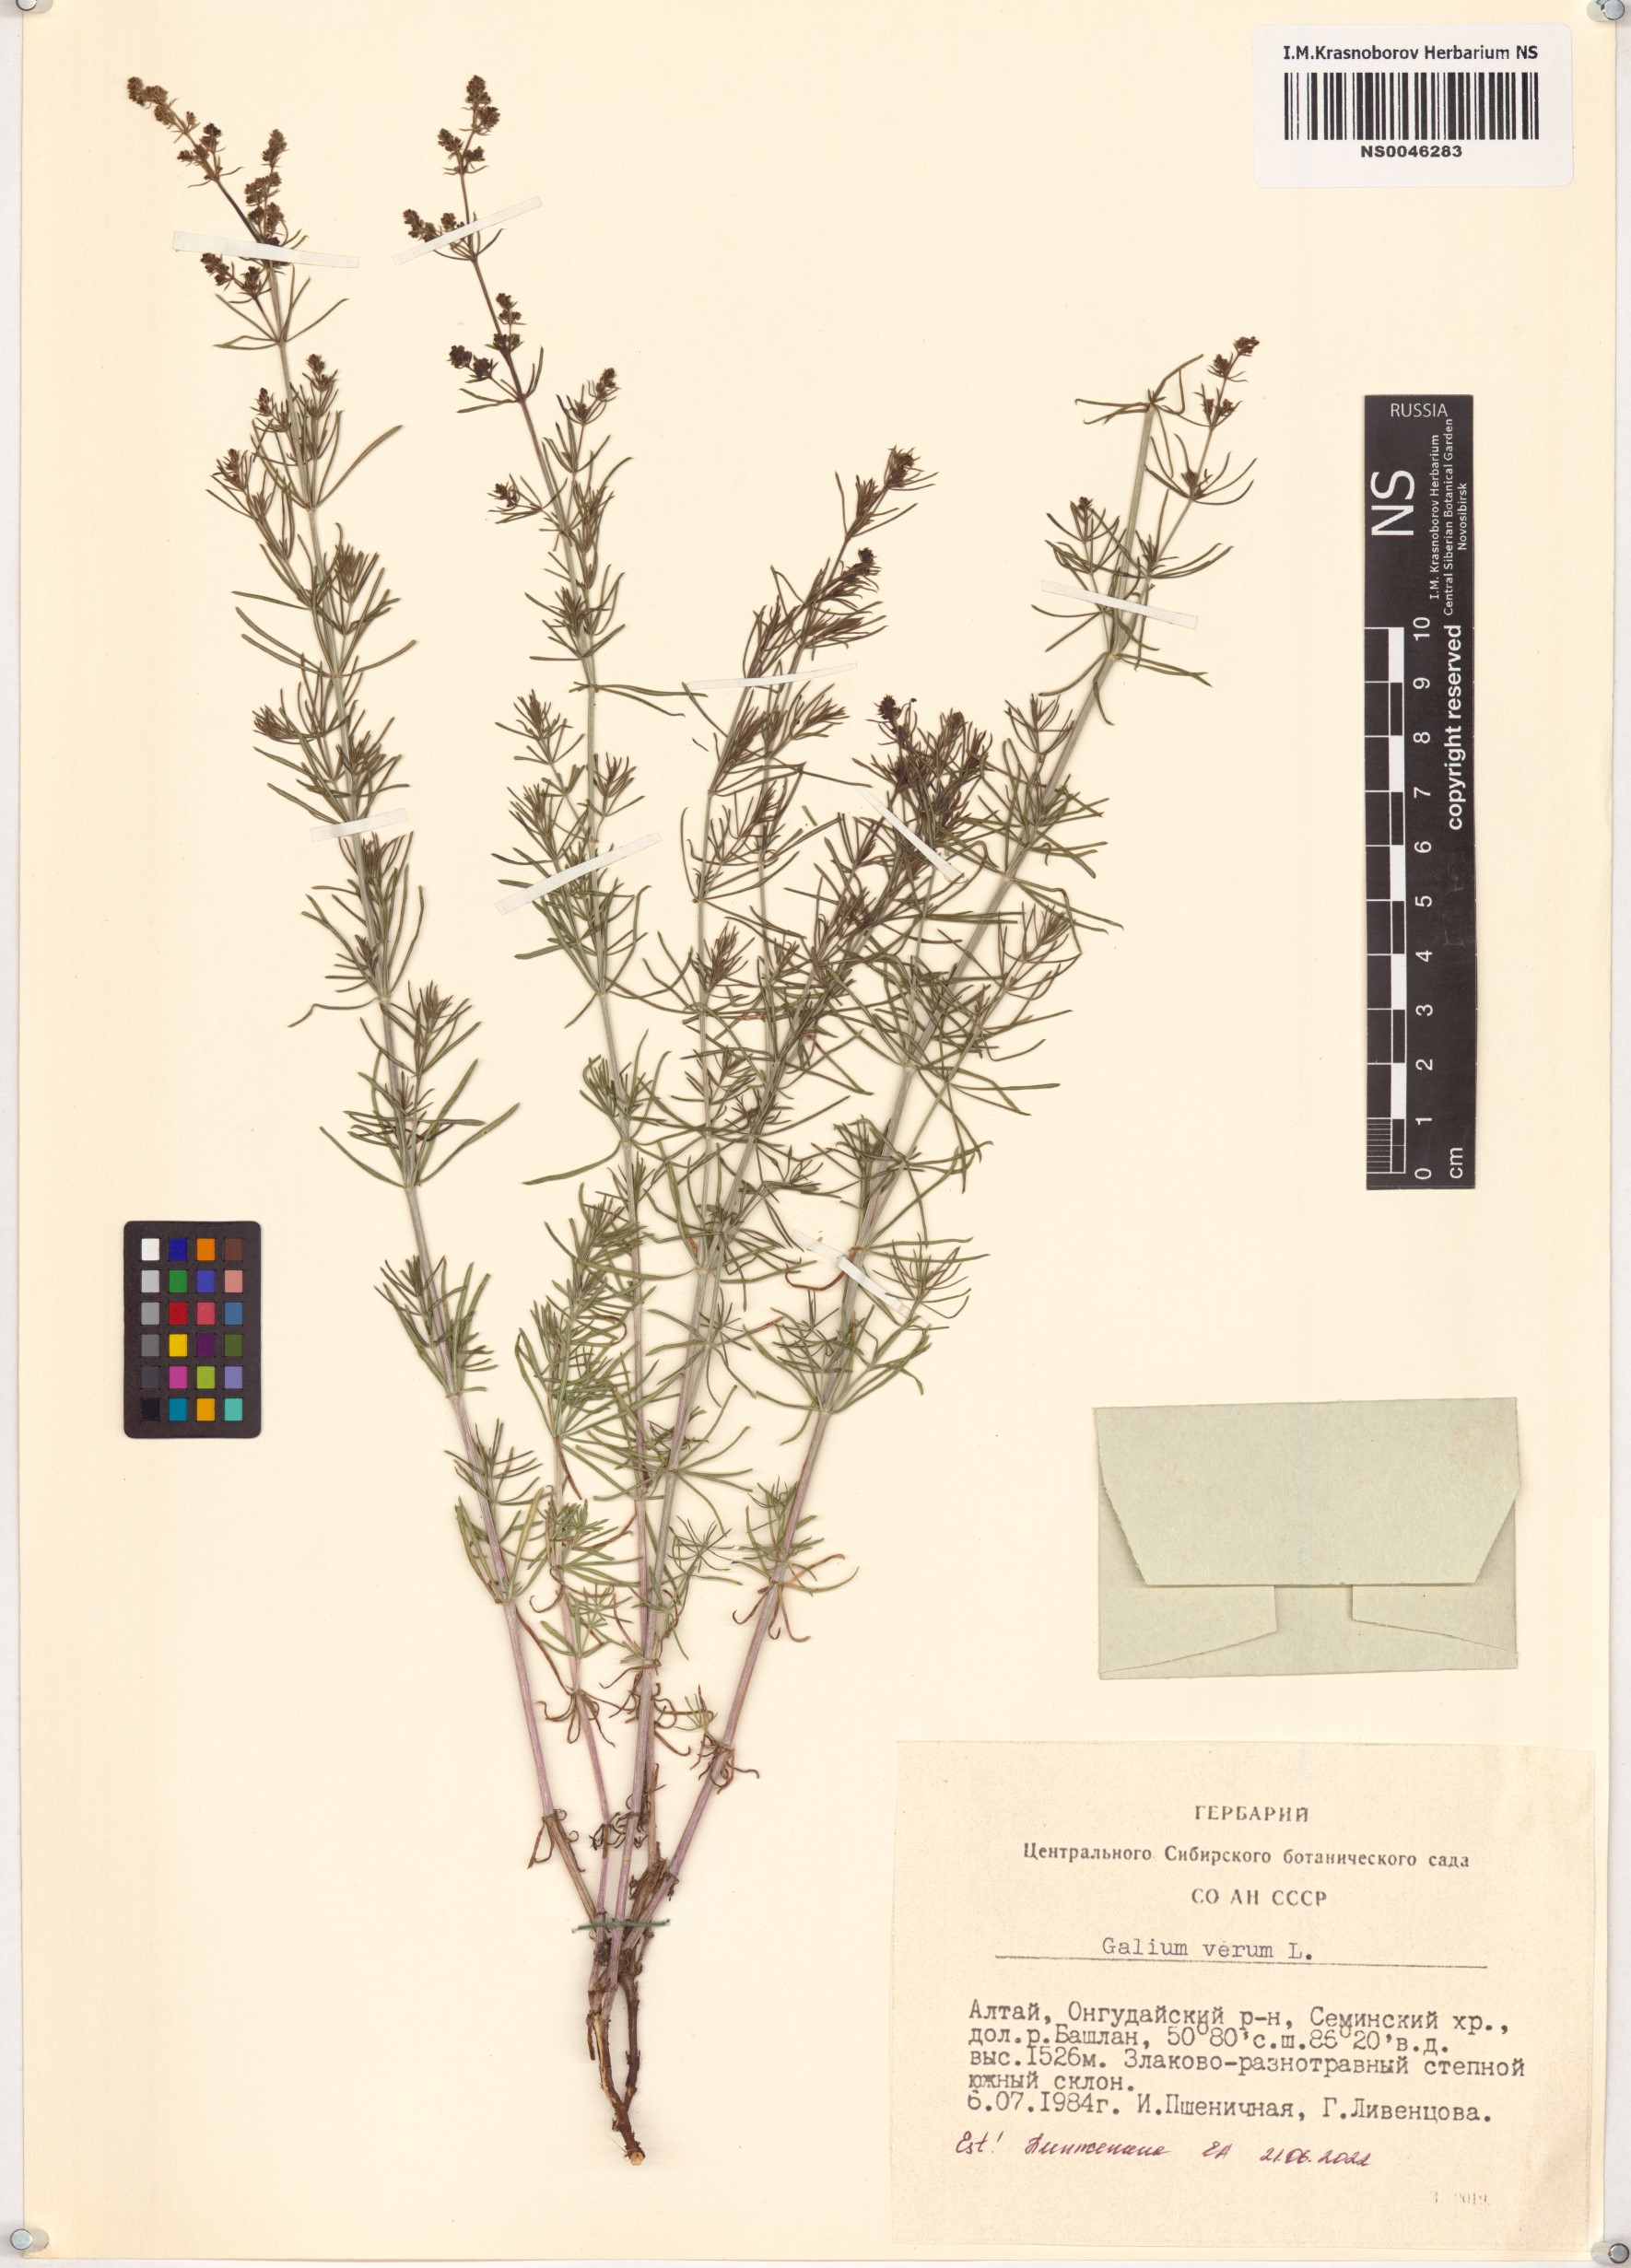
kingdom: Plantae
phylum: Tracheophyta
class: Magnoliopsida
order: Gentianales
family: Rubiaceae
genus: Galium
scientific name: Galium verum
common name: Lady's bedstraw
